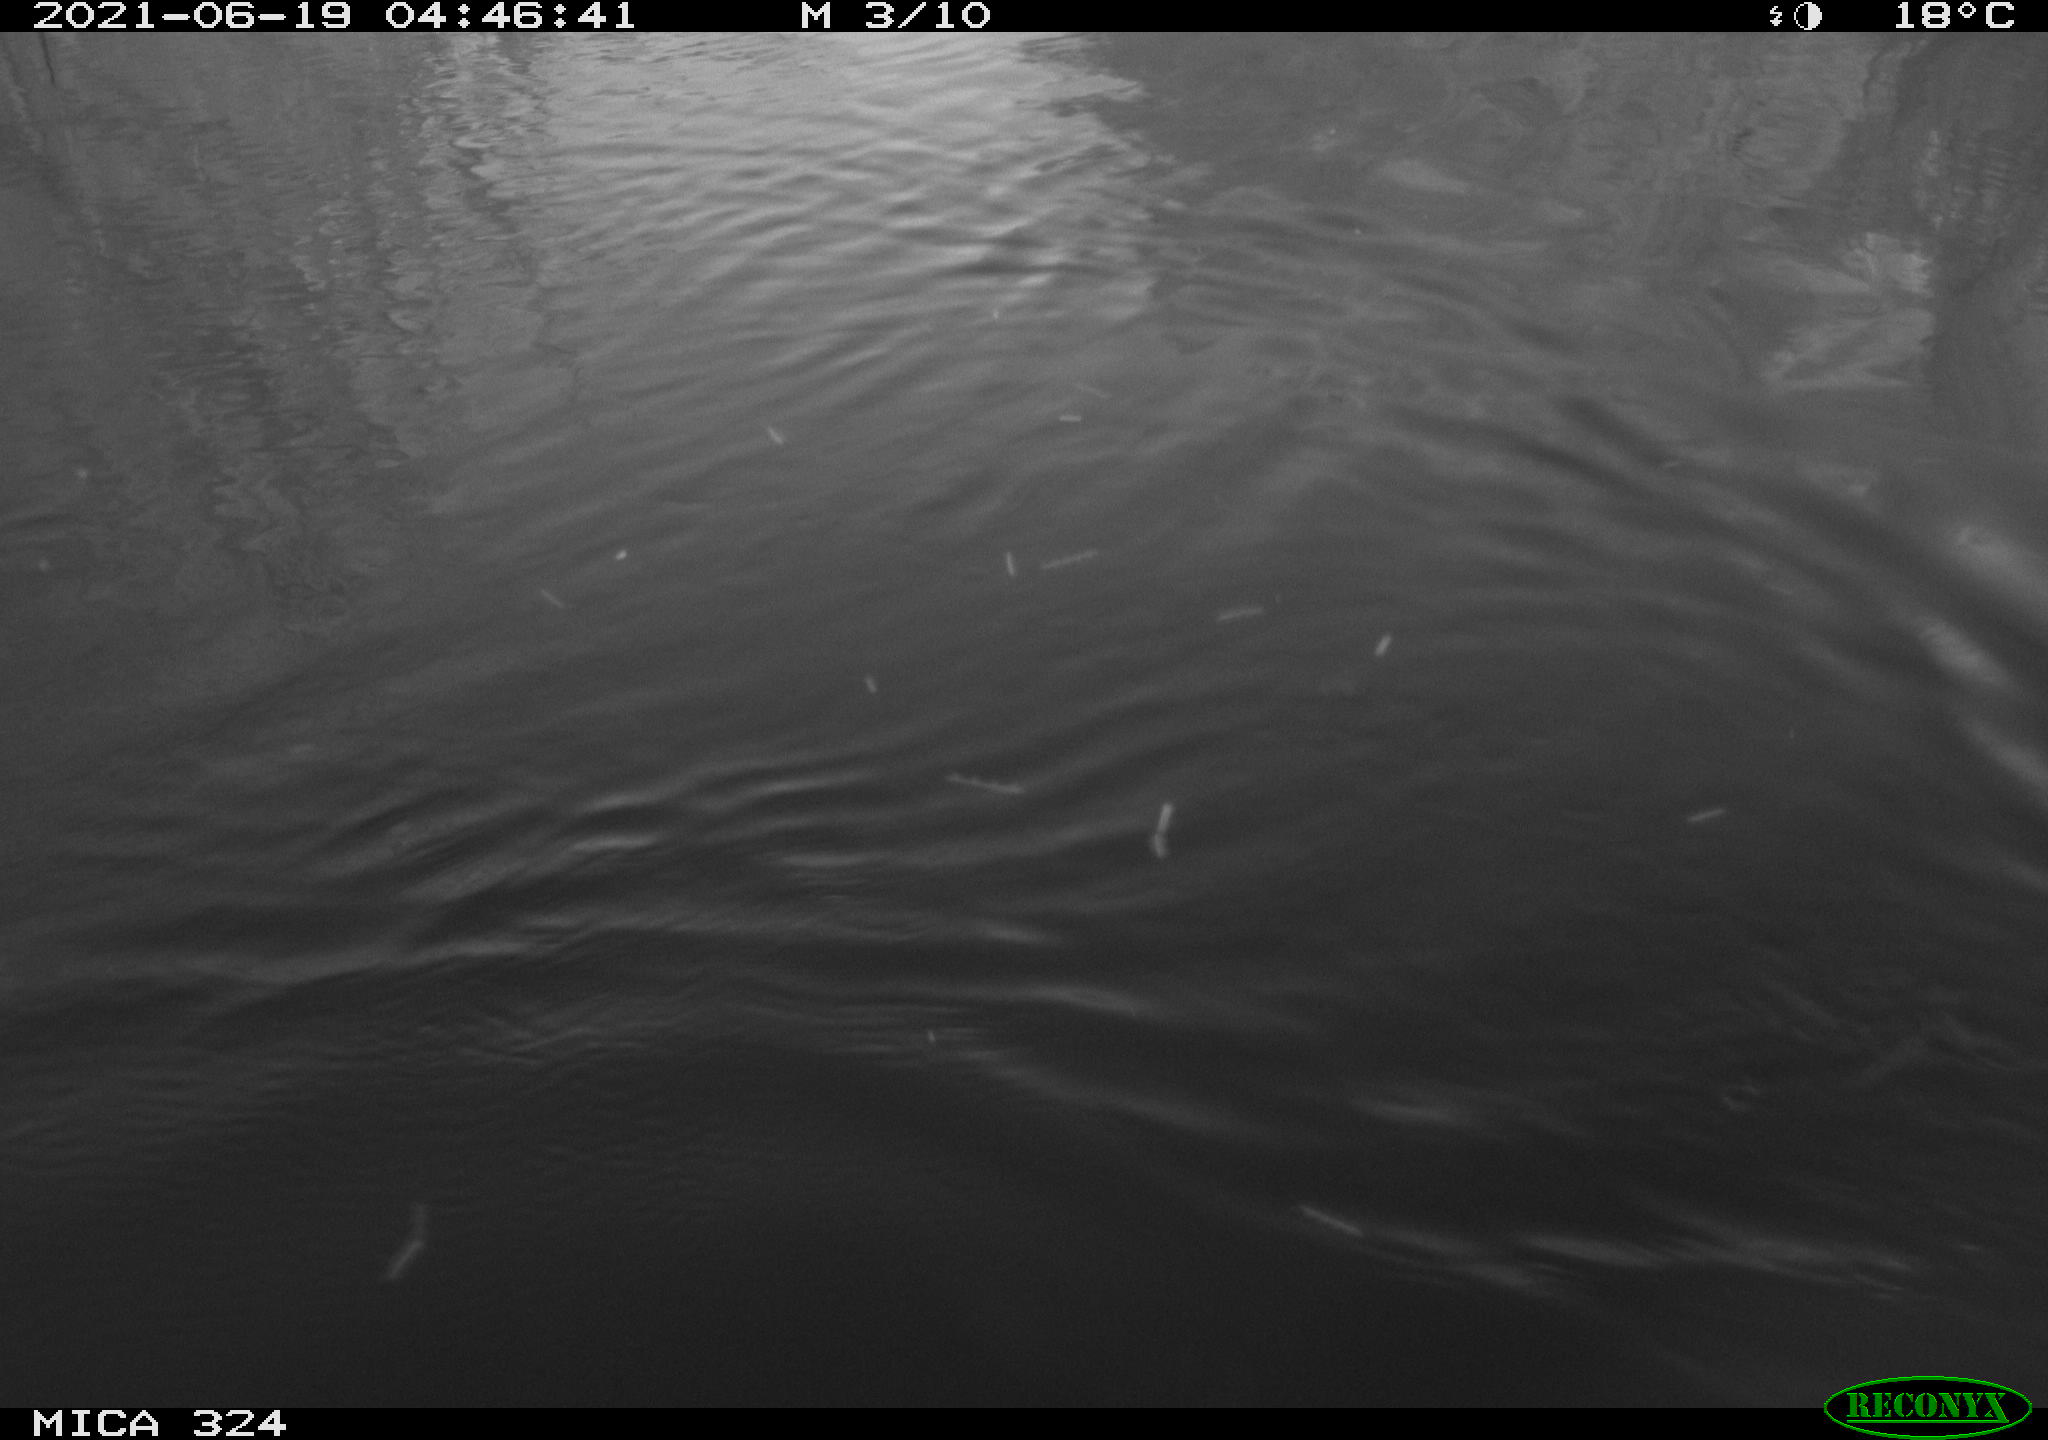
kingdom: Animalia
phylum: Chordata
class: Aves
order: Gruiformes
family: Rallidae
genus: Gallinula
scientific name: Gallinula chloropus
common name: Common moorhen
